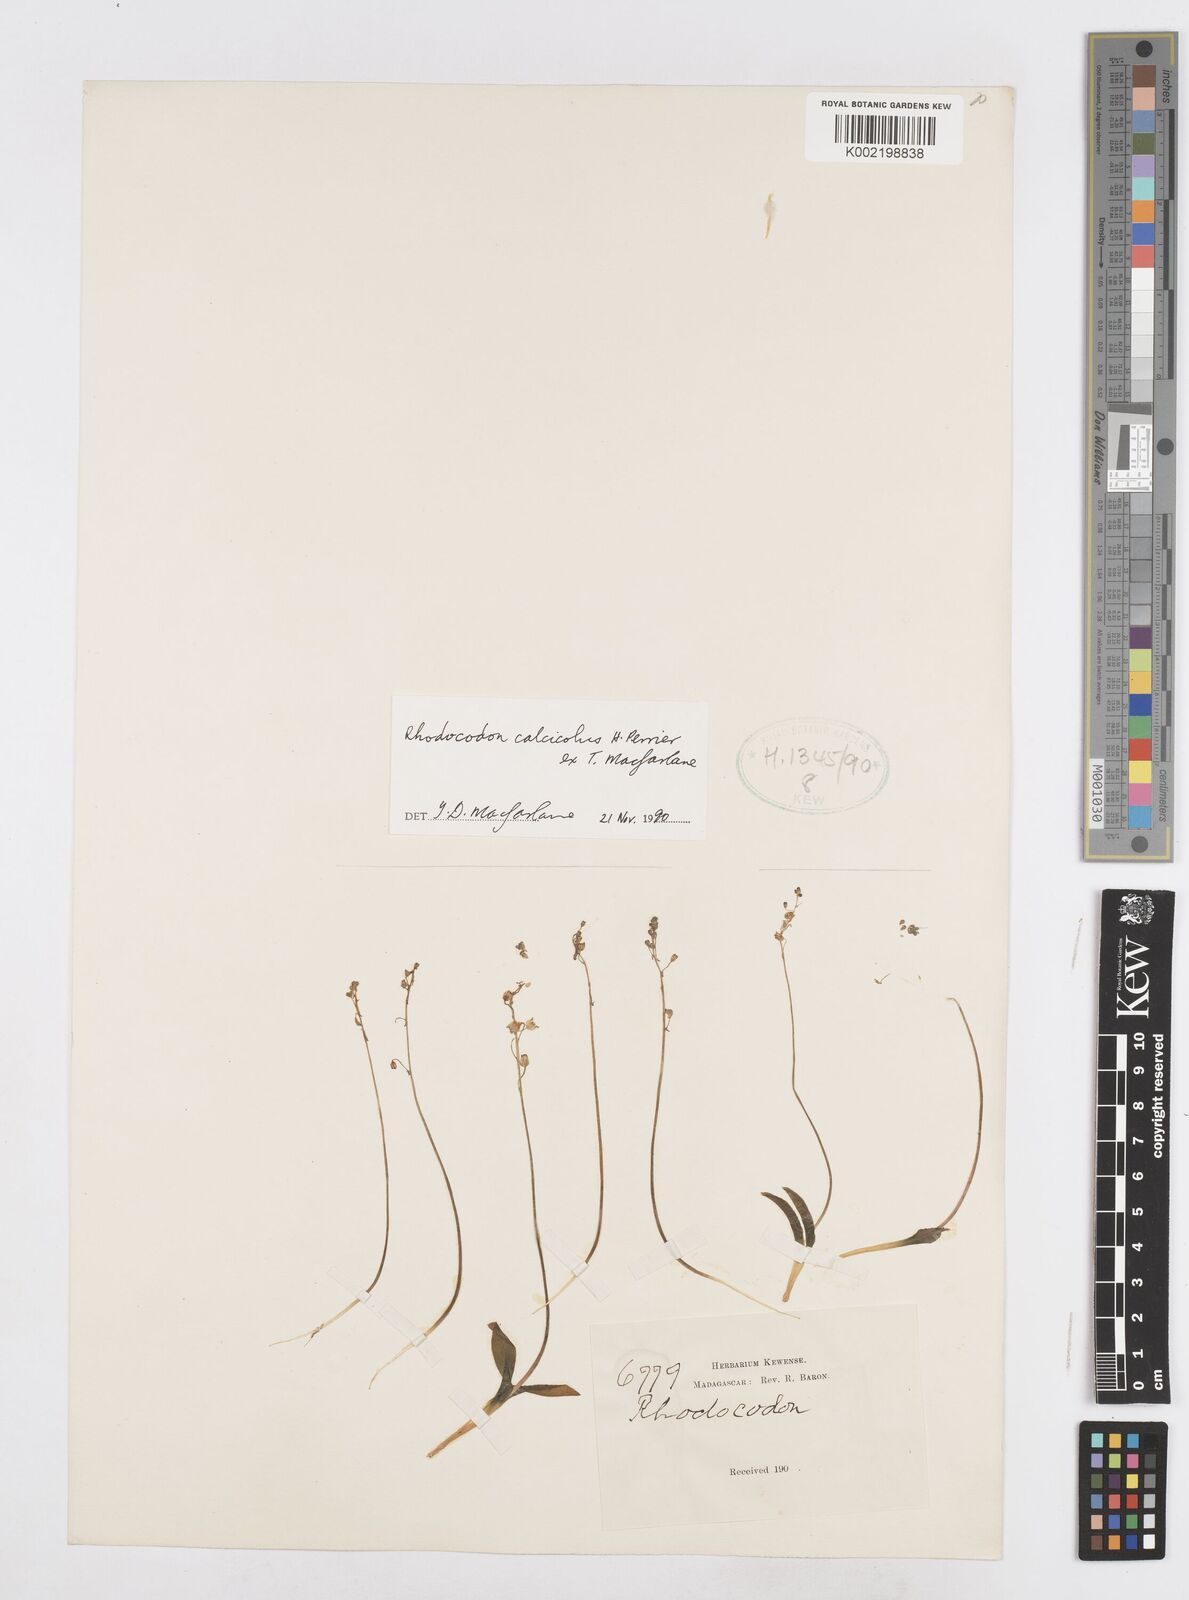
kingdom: Plantae
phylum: Tracheophyta
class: Liliopsida
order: Asparagales
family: Asparagaceae
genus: Drimia
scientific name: Drimia Rhodocodon calcicola
